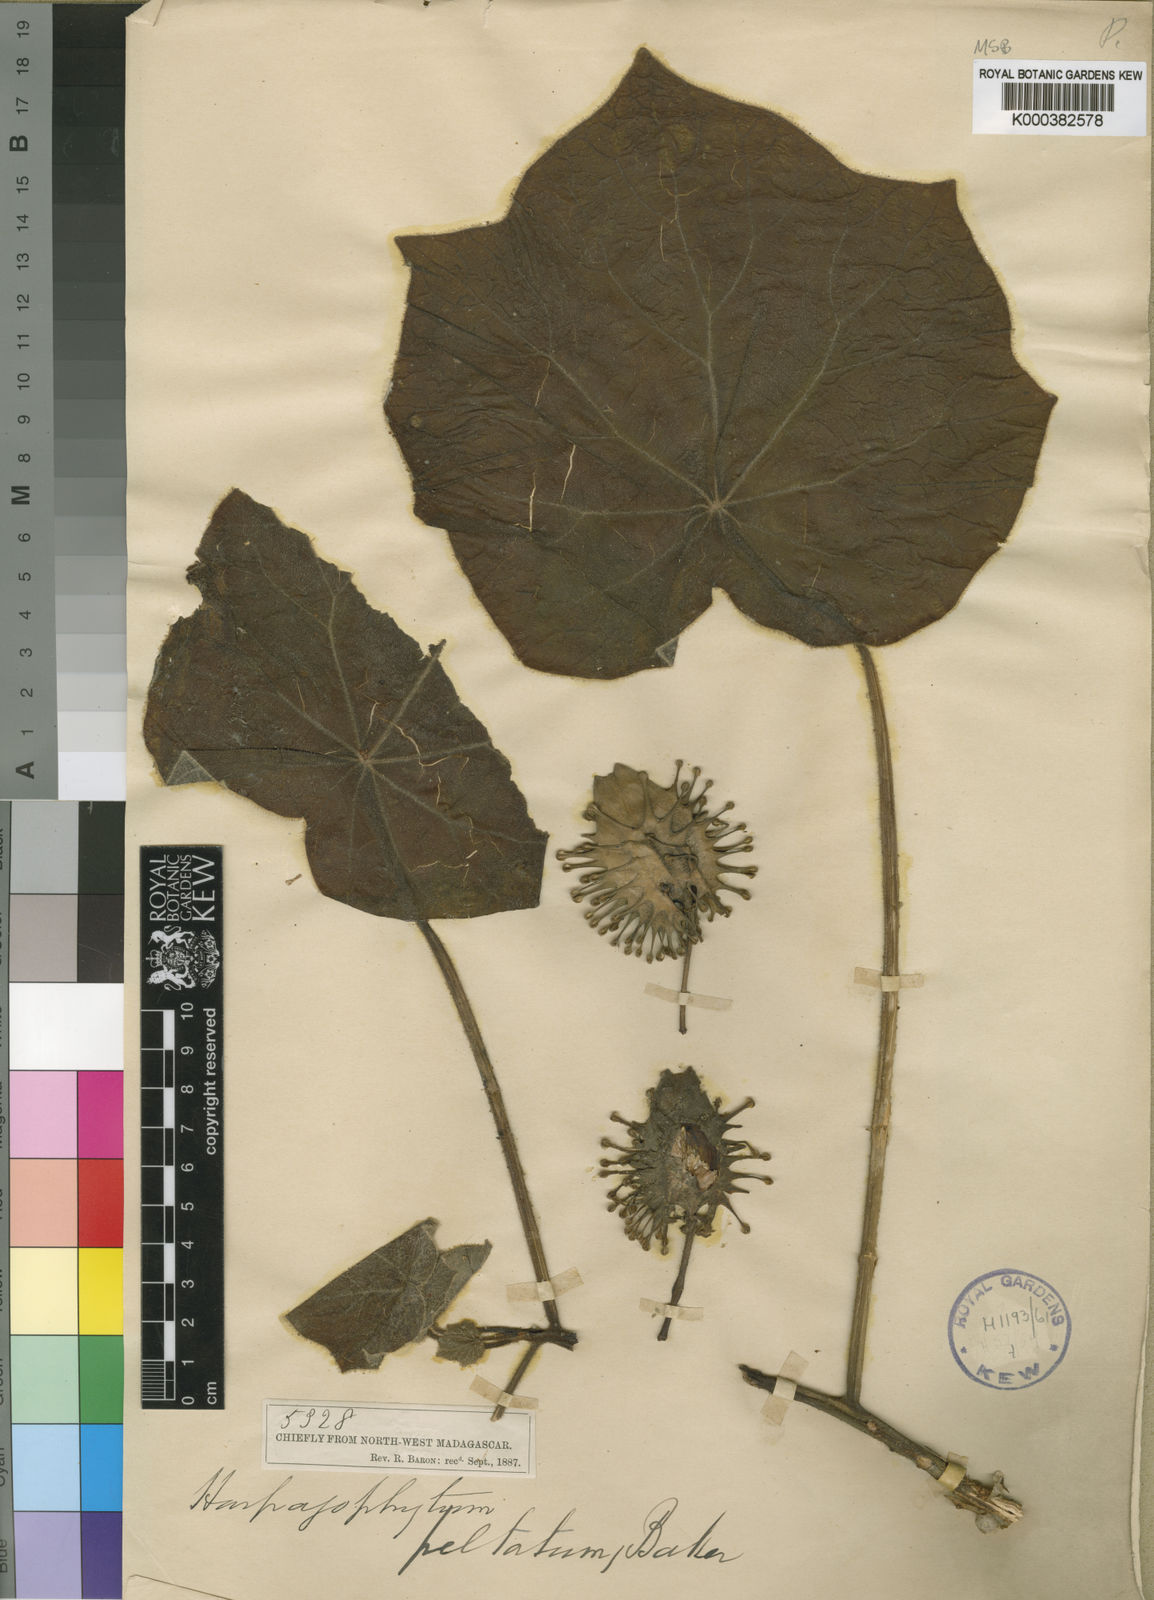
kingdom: Plantae
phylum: Tracheophyta
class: Magnoliopsida
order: Lamiales
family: Pedaliaceae
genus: Uncarina
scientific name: Uncarina peltata
